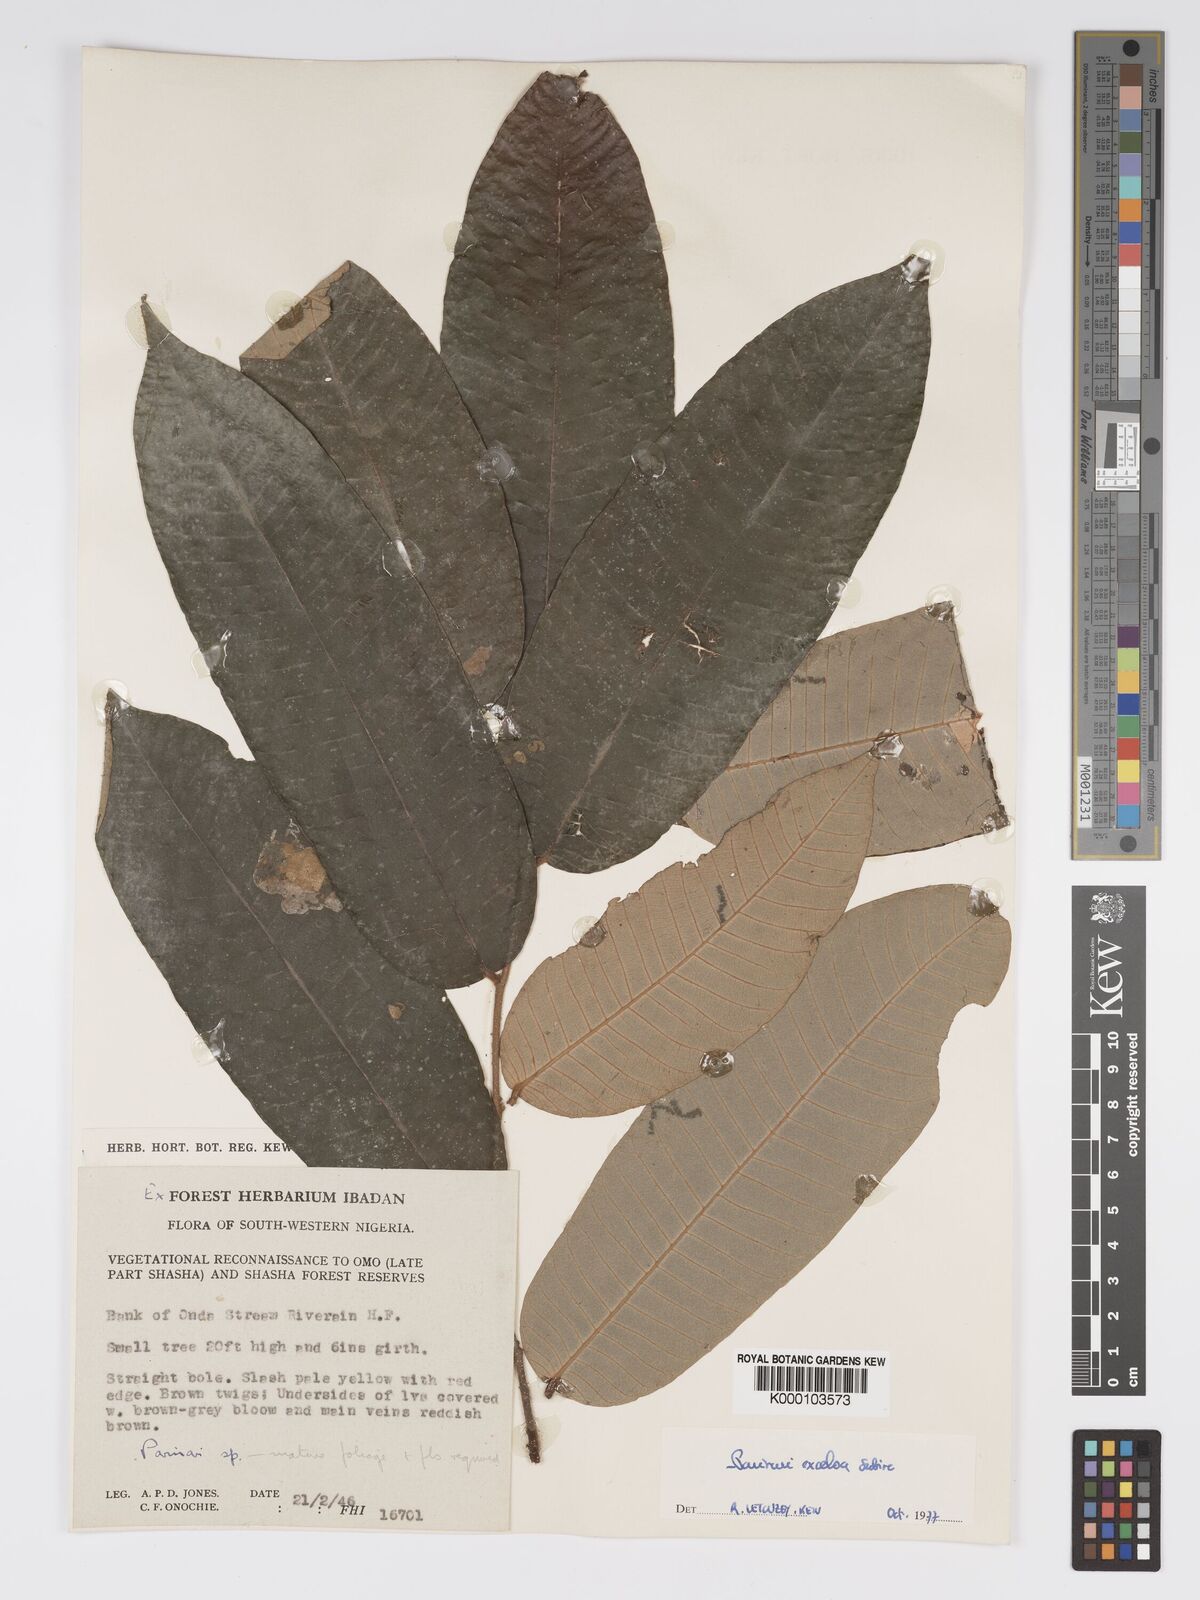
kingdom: Plantae
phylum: Tracheophyta
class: Magnoliopsida
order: Malpighiales
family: Chrysobalanaceae
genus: Parinari
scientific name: Parinari excelsa
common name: Guinea-plum
